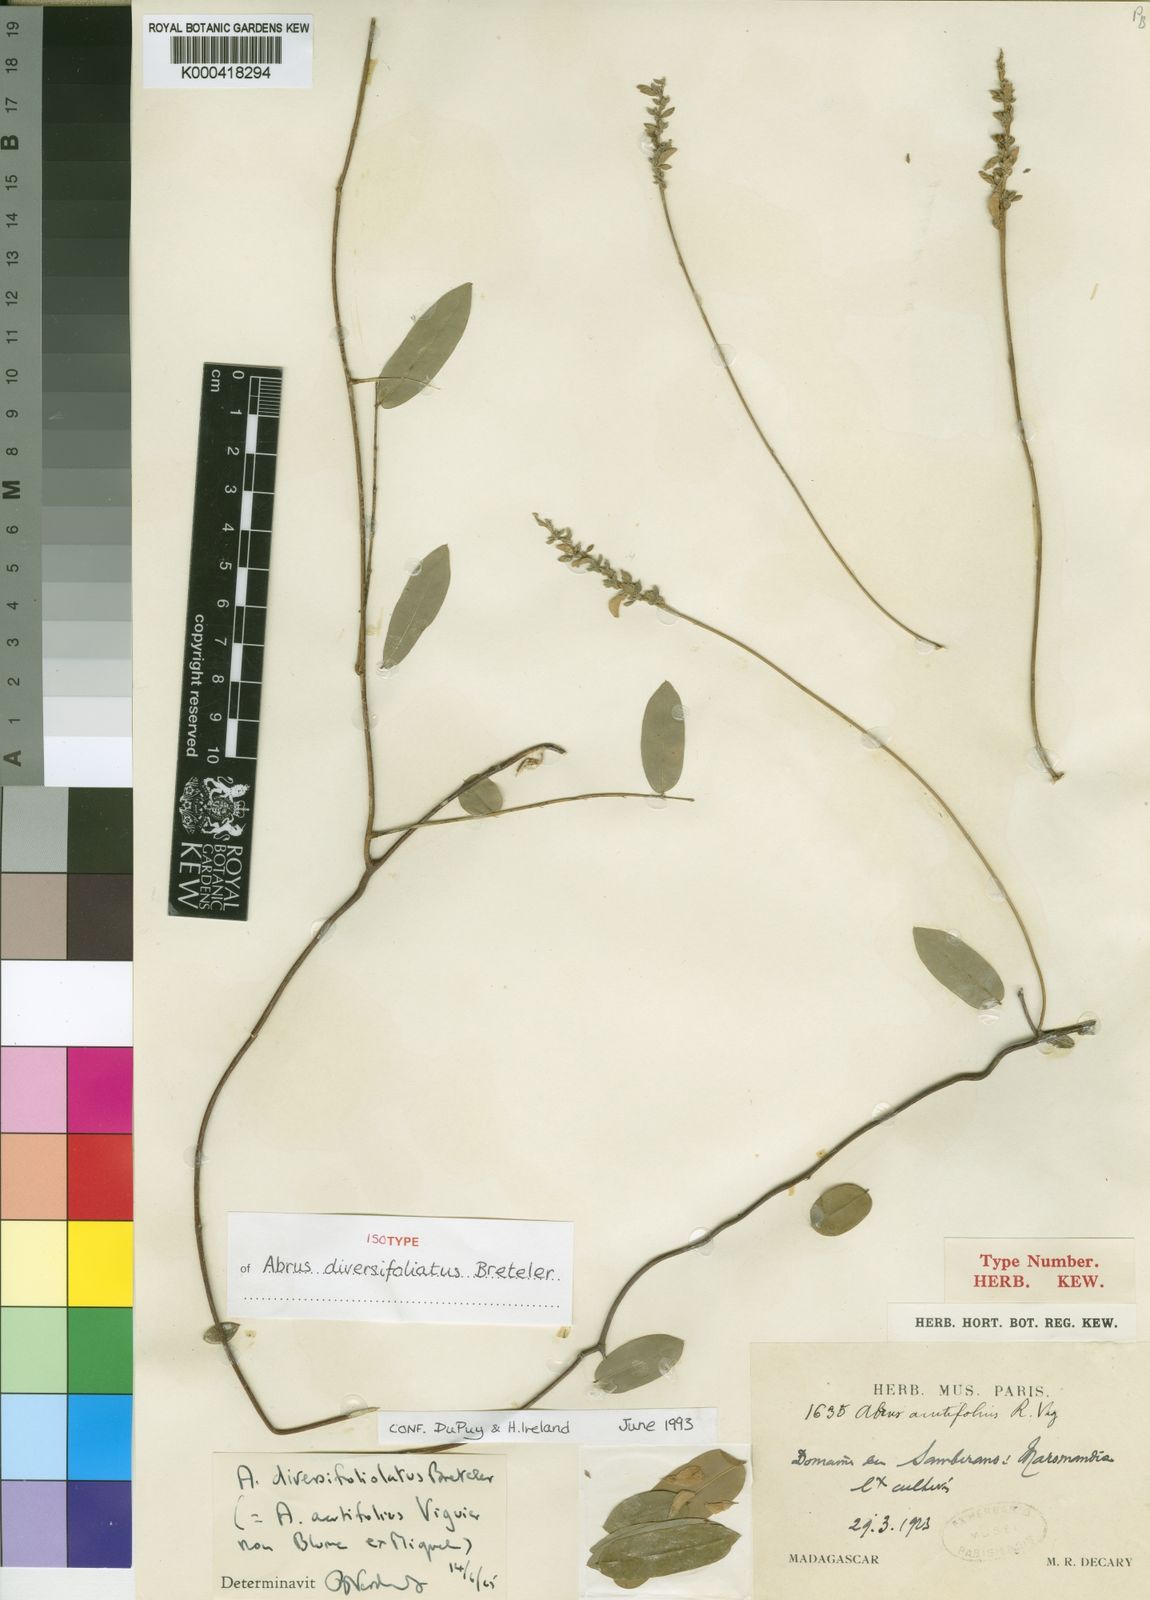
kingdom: Plantae
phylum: Tracheophyta
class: Magnoliopsida
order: Fabales
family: Fabaceae
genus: Abrus
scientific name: Abrus diversifoliolatus
